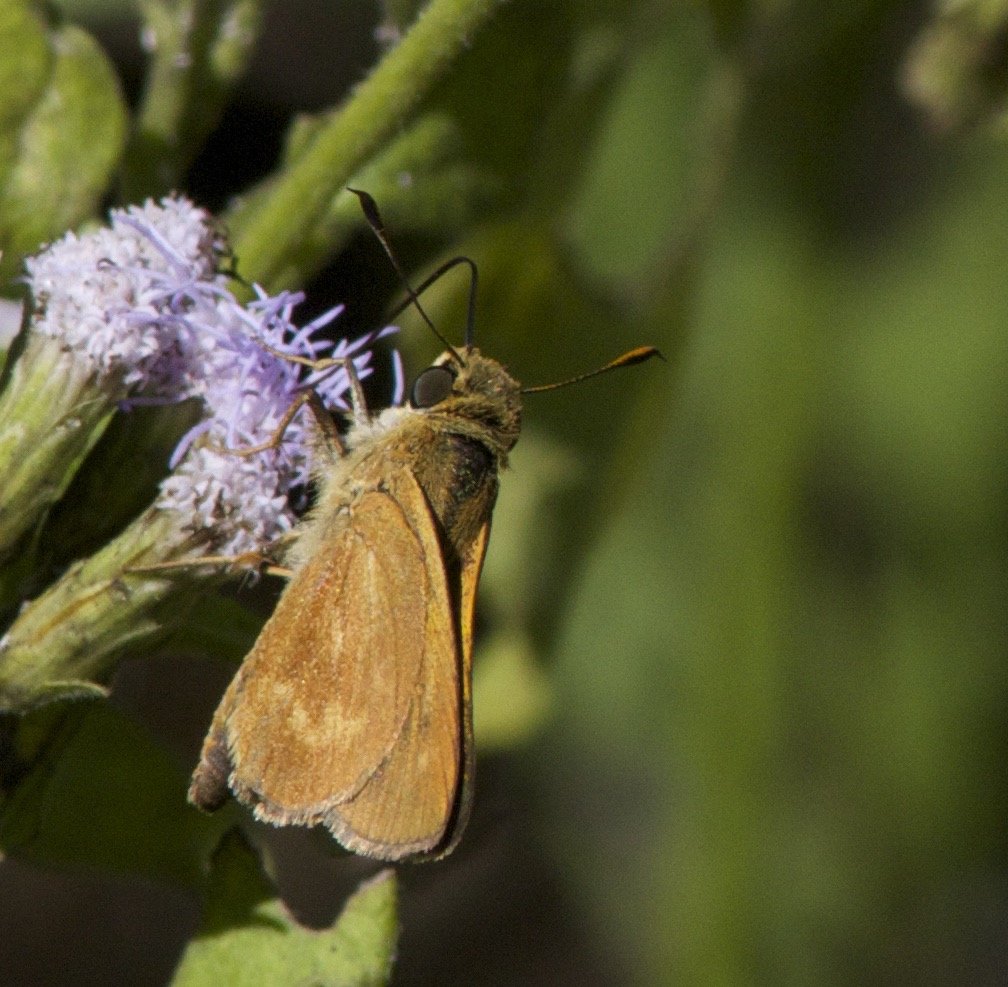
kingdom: Animalia
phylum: Arthropoda
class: Insecta
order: Lepidoptera
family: Hesperiidae
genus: Wallengrenia
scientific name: Wallengrenia otho
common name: Southern Broken-Dash
